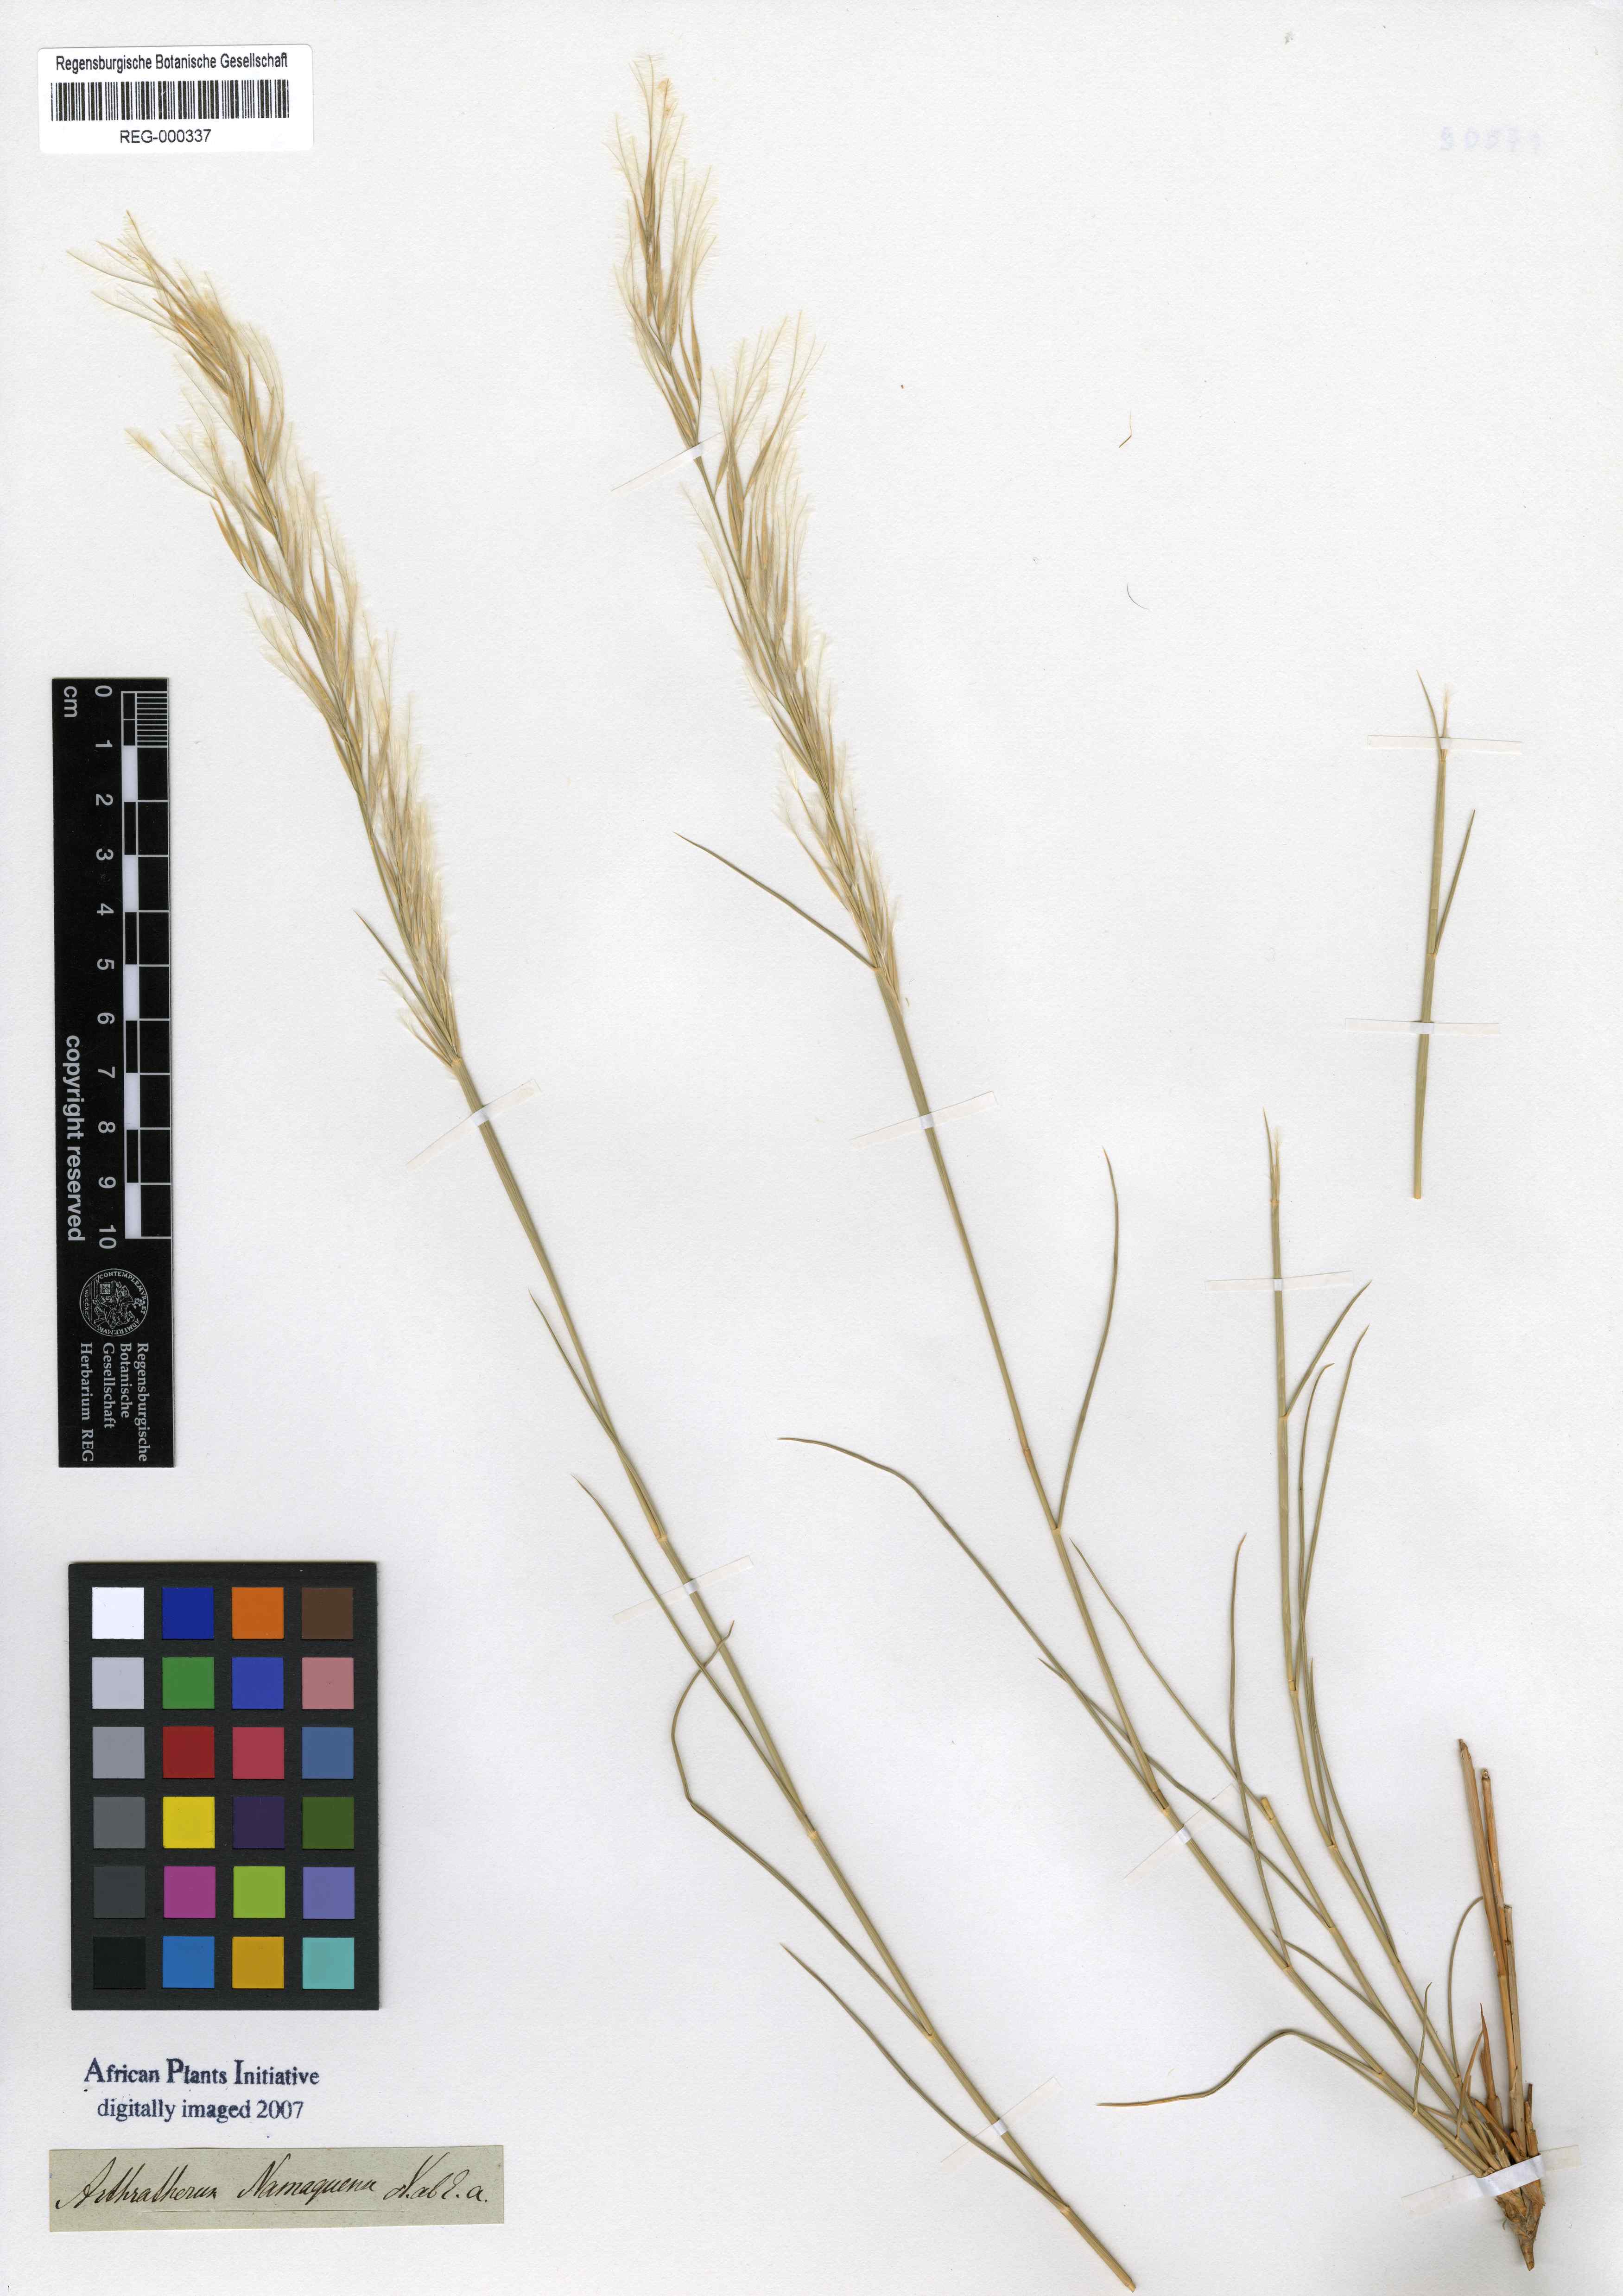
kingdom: Plantae
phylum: Tracheophyta
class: Liliopsida
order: Poales
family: Poaceae
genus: Stipagrostis
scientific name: Stipagrostis namaquensis
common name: River bushman grass
